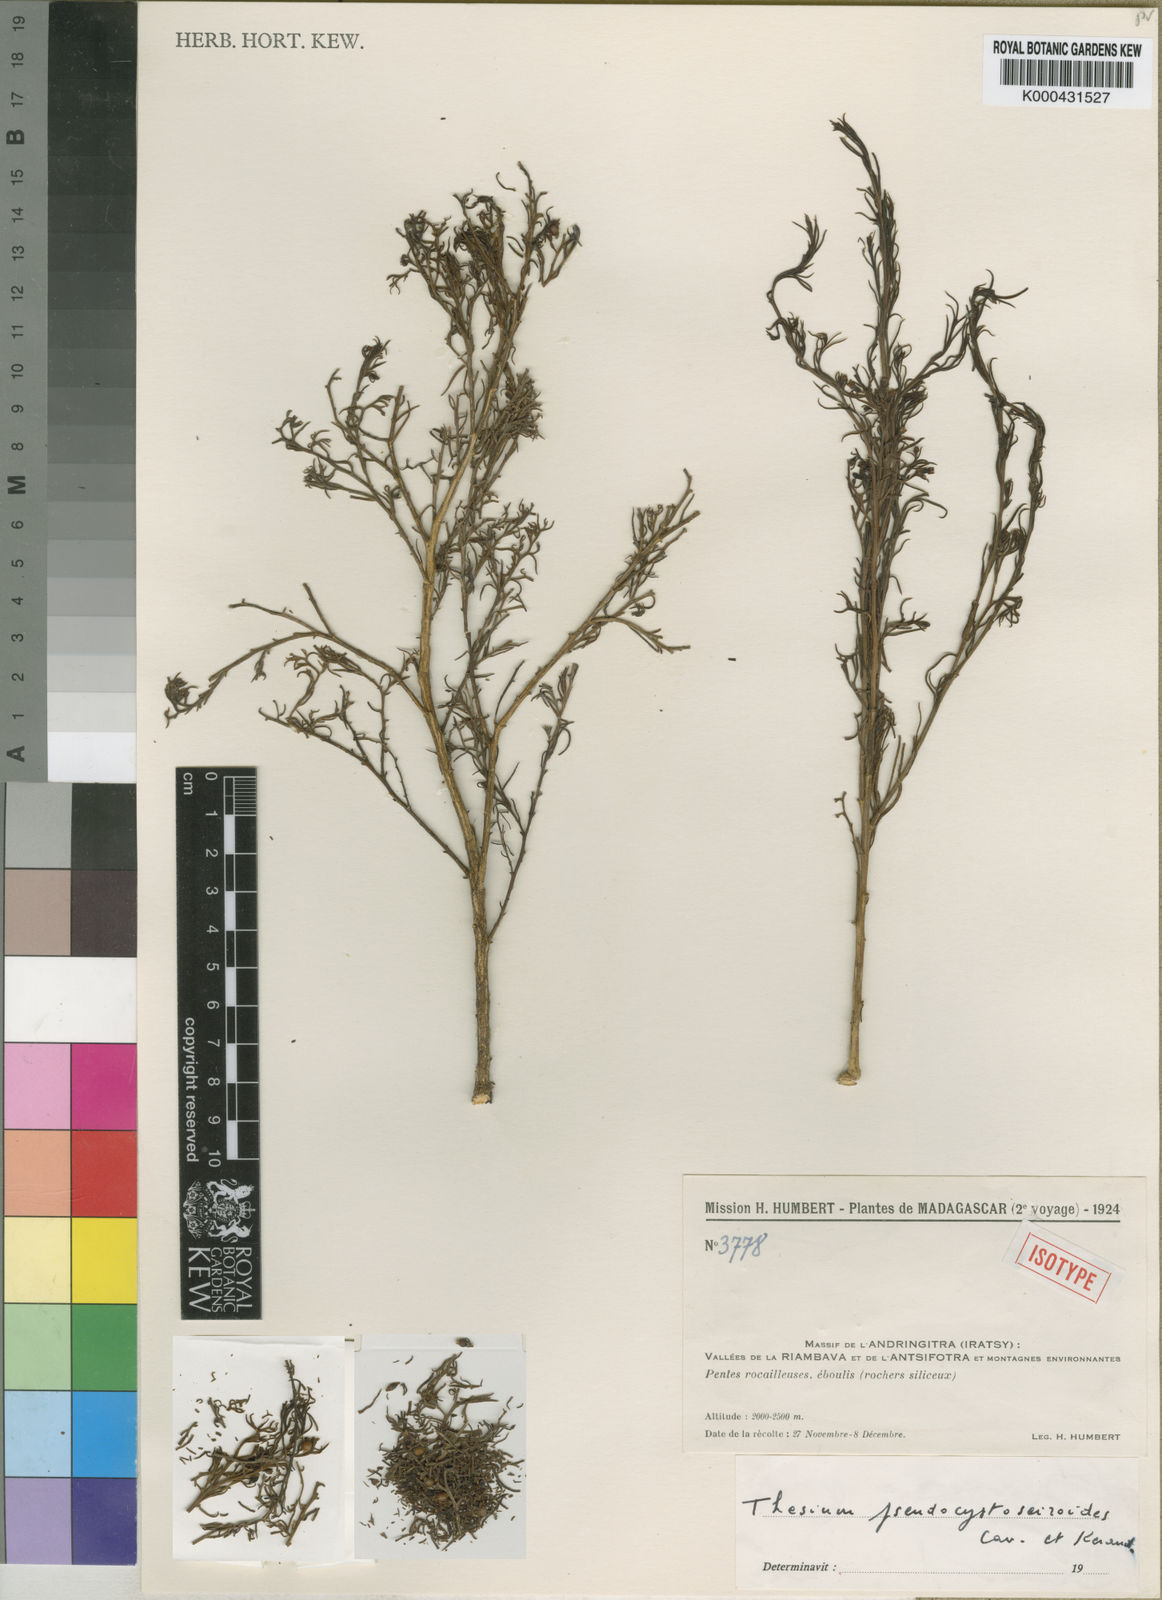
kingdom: Plantae
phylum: Tracheophyta
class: Magnoliopsida
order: Santalales
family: Thesiaceae
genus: Thesium
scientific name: Thesium pseudocystoseiroides
